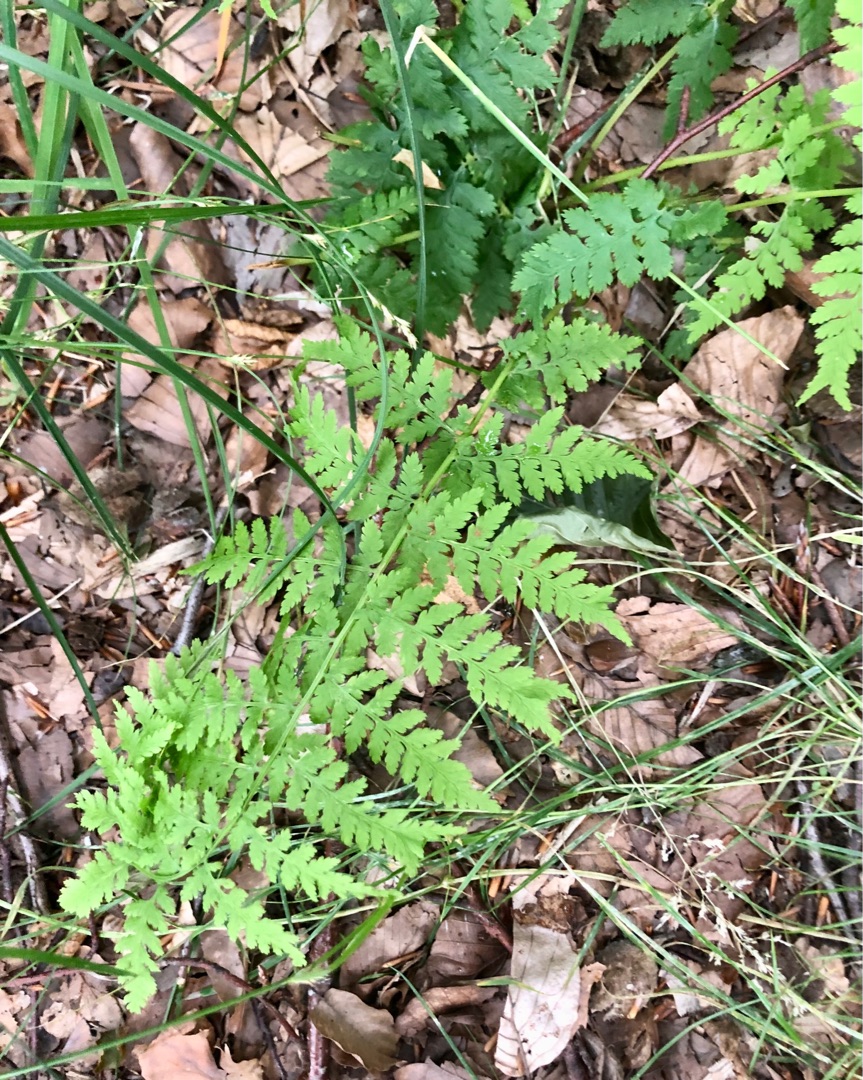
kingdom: Plantae
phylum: Tracheophyta
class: Polypodiopsida
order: Polypodiales
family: Dryopteridaceae
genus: Dryopteris
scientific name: Dryopteris
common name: Mangeløv (Dryopteris-slægten)
